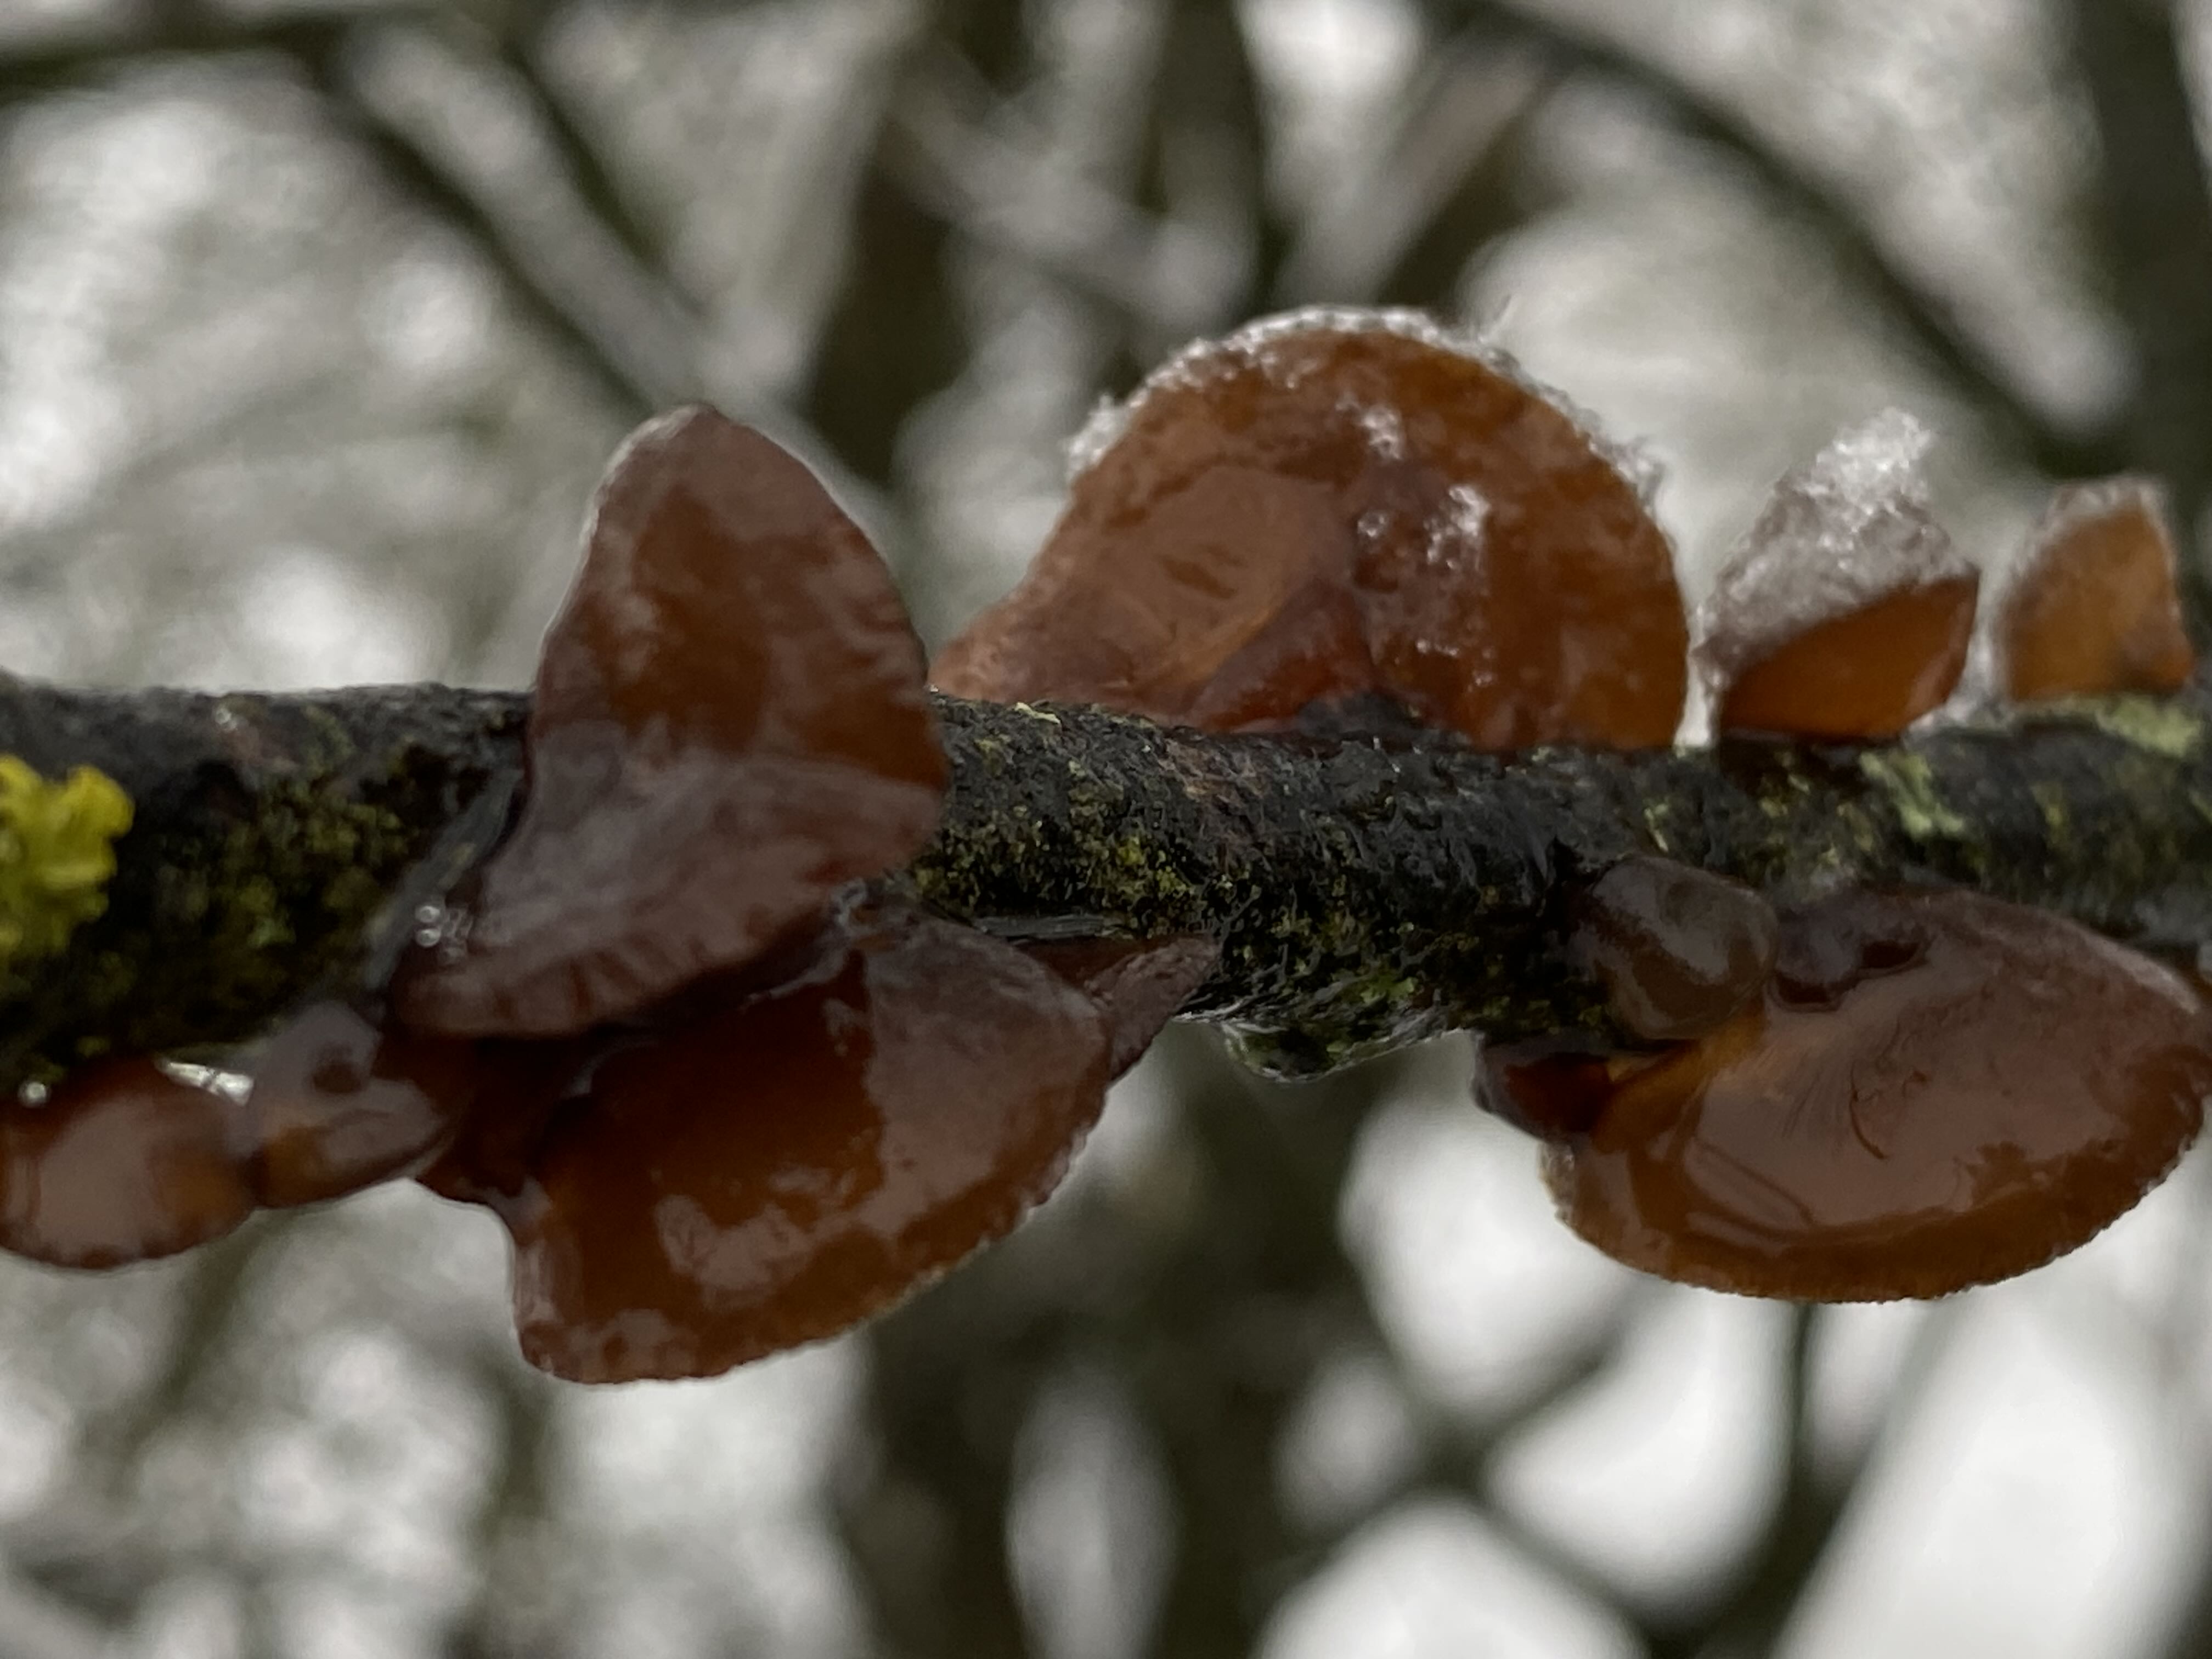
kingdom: Fungi
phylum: Basidiomycota
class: Agaricomycetes
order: Auriculariales
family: Auriculariaceae
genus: Exidia
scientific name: Exidia recisa
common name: pile-bævretop
